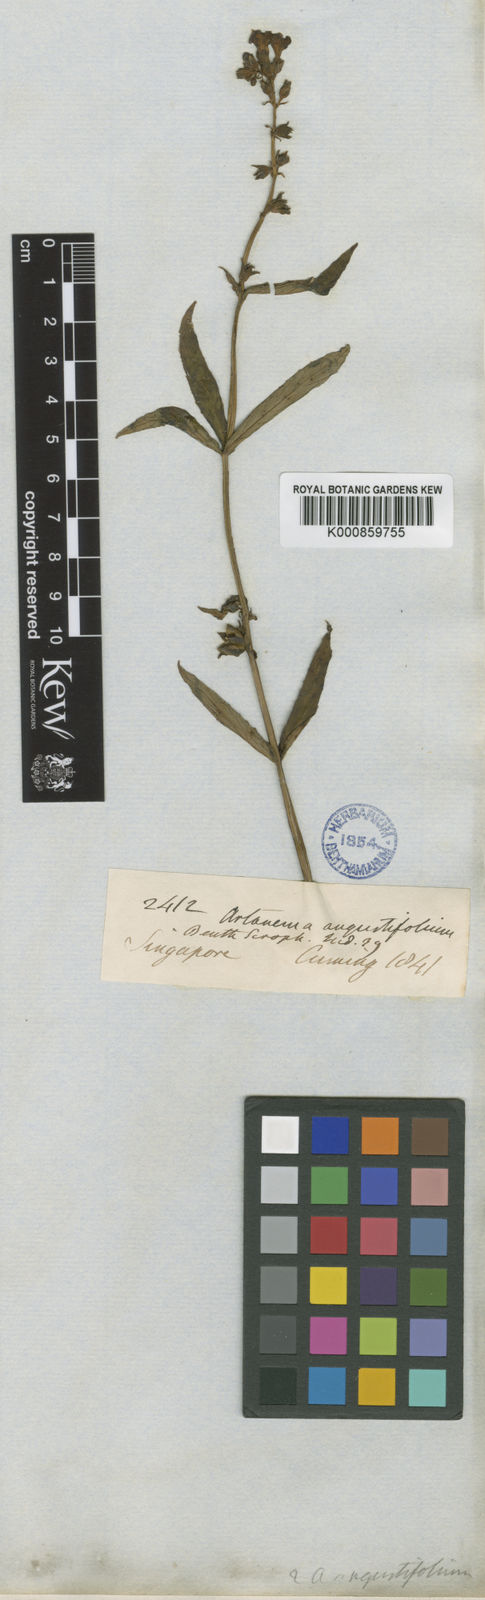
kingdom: Plantae
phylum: Tracheophyta
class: Magnoliopsida
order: Lamiales
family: Linderniaceae
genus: Artanema
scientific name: Artanema angustifolium
